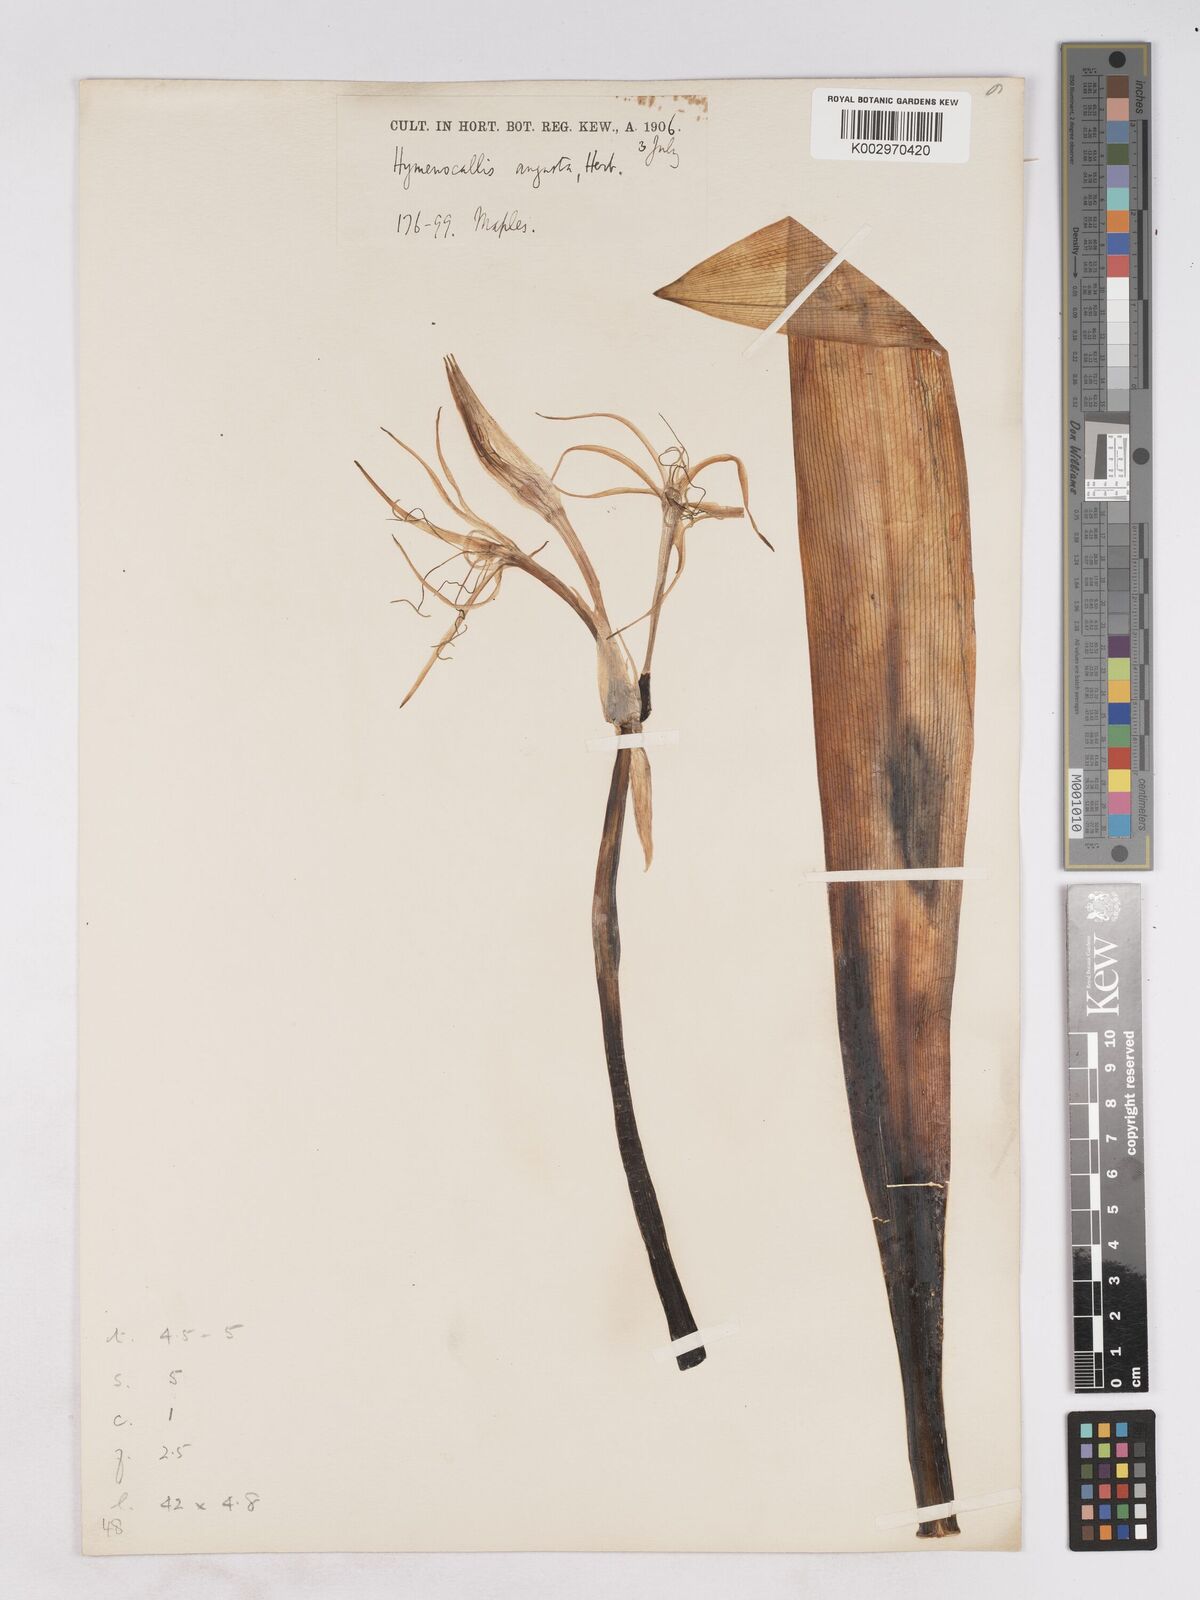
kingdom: Plantae
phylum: Tracheophyta
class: Liliopsida
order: Asparagales
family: Amaryllidaceae
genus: Hymenocallis
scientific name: Hymenocallis harrisiana
